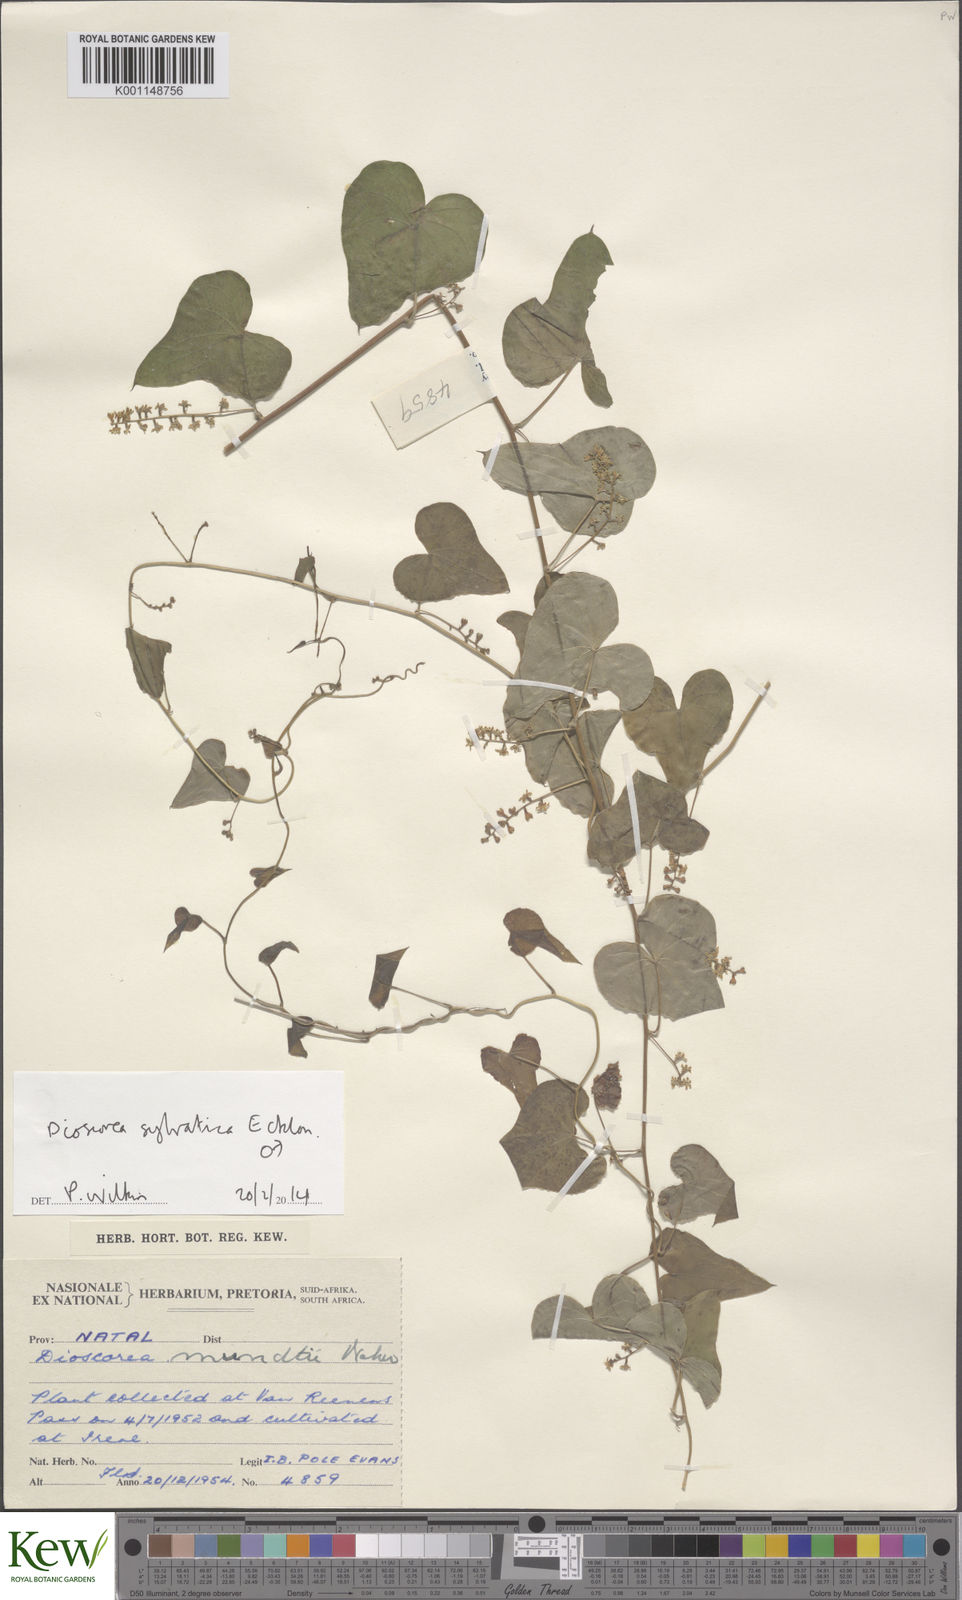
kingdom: Plantae
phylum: Tracheophyta
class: Liliopsida
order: Dioscoreales
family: Dioscoreaceae
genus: Dioscorea
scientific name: Dioscorea sylvatica
